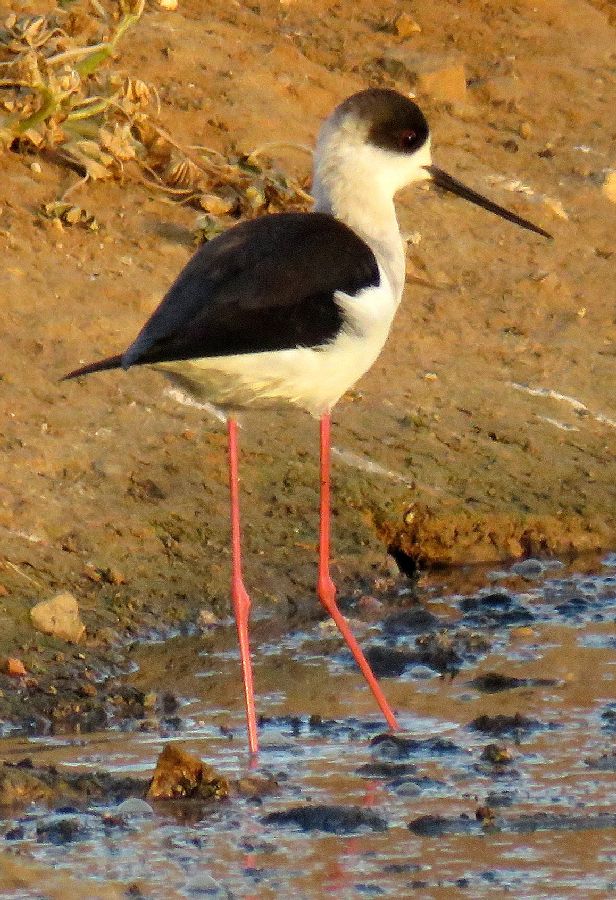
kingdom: Animalia
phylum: Chordata
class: Aves
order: Charadriiformes
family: Recurvirostridae
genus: Himantopus
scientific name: Himantopus himantopus
